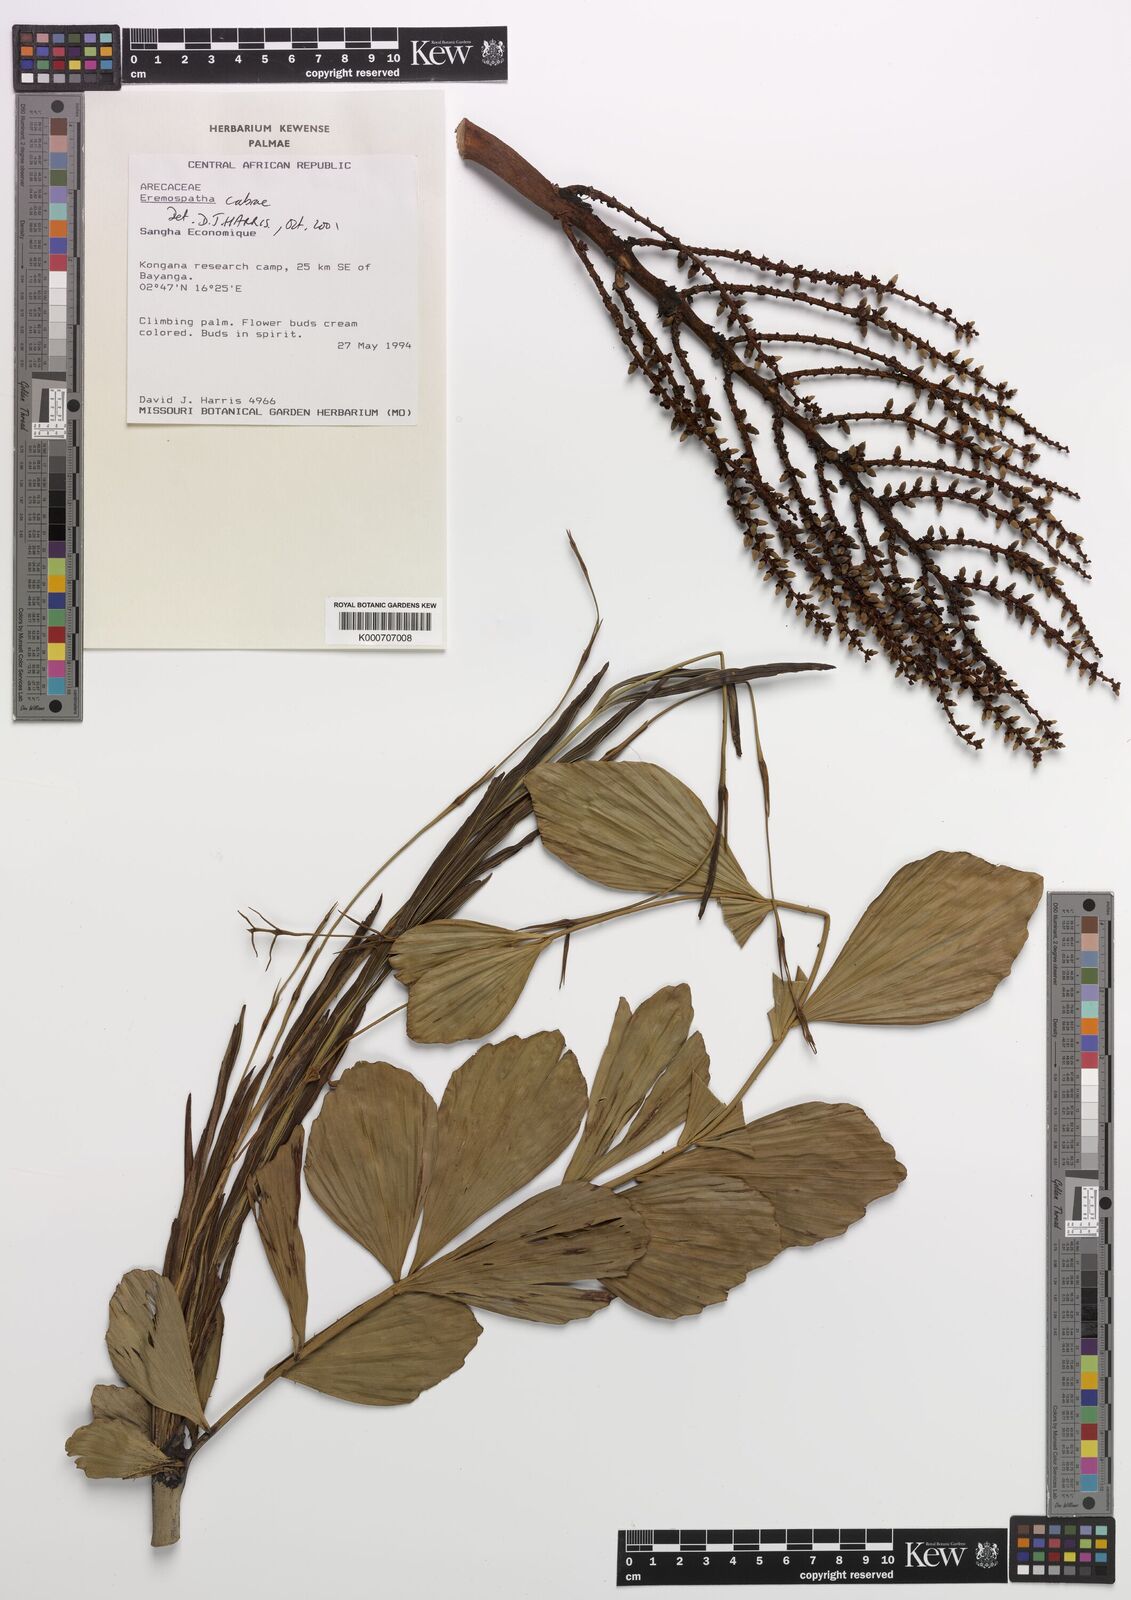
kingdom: Plantae
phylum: Tracheophyta
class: Liliopsida
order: Arecales
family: Arecaceae
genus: Eremospatha
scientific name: Eremospatha cabrae
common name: Rattan
